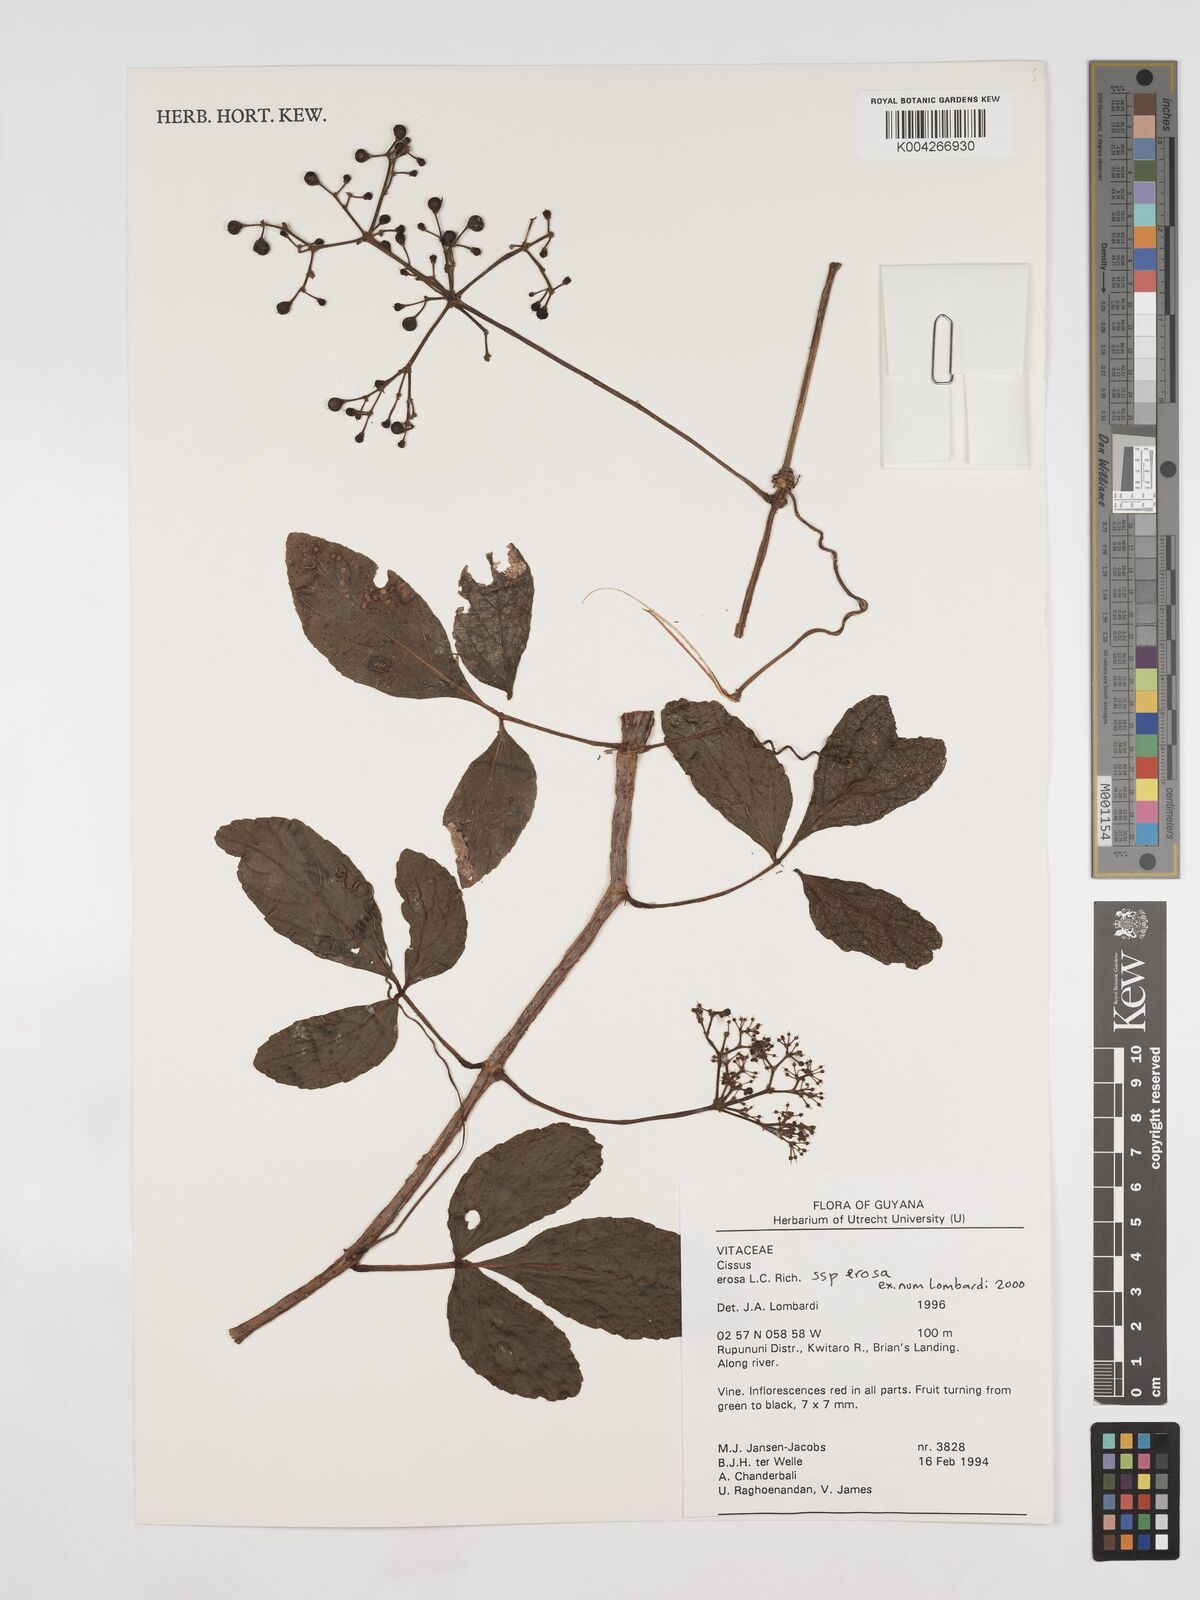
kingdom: Plantae
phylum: Tracheophyta
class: Magnoliopsida
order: Vitales
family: Vitaceae
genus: Cissus
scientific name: Cissus erosa
